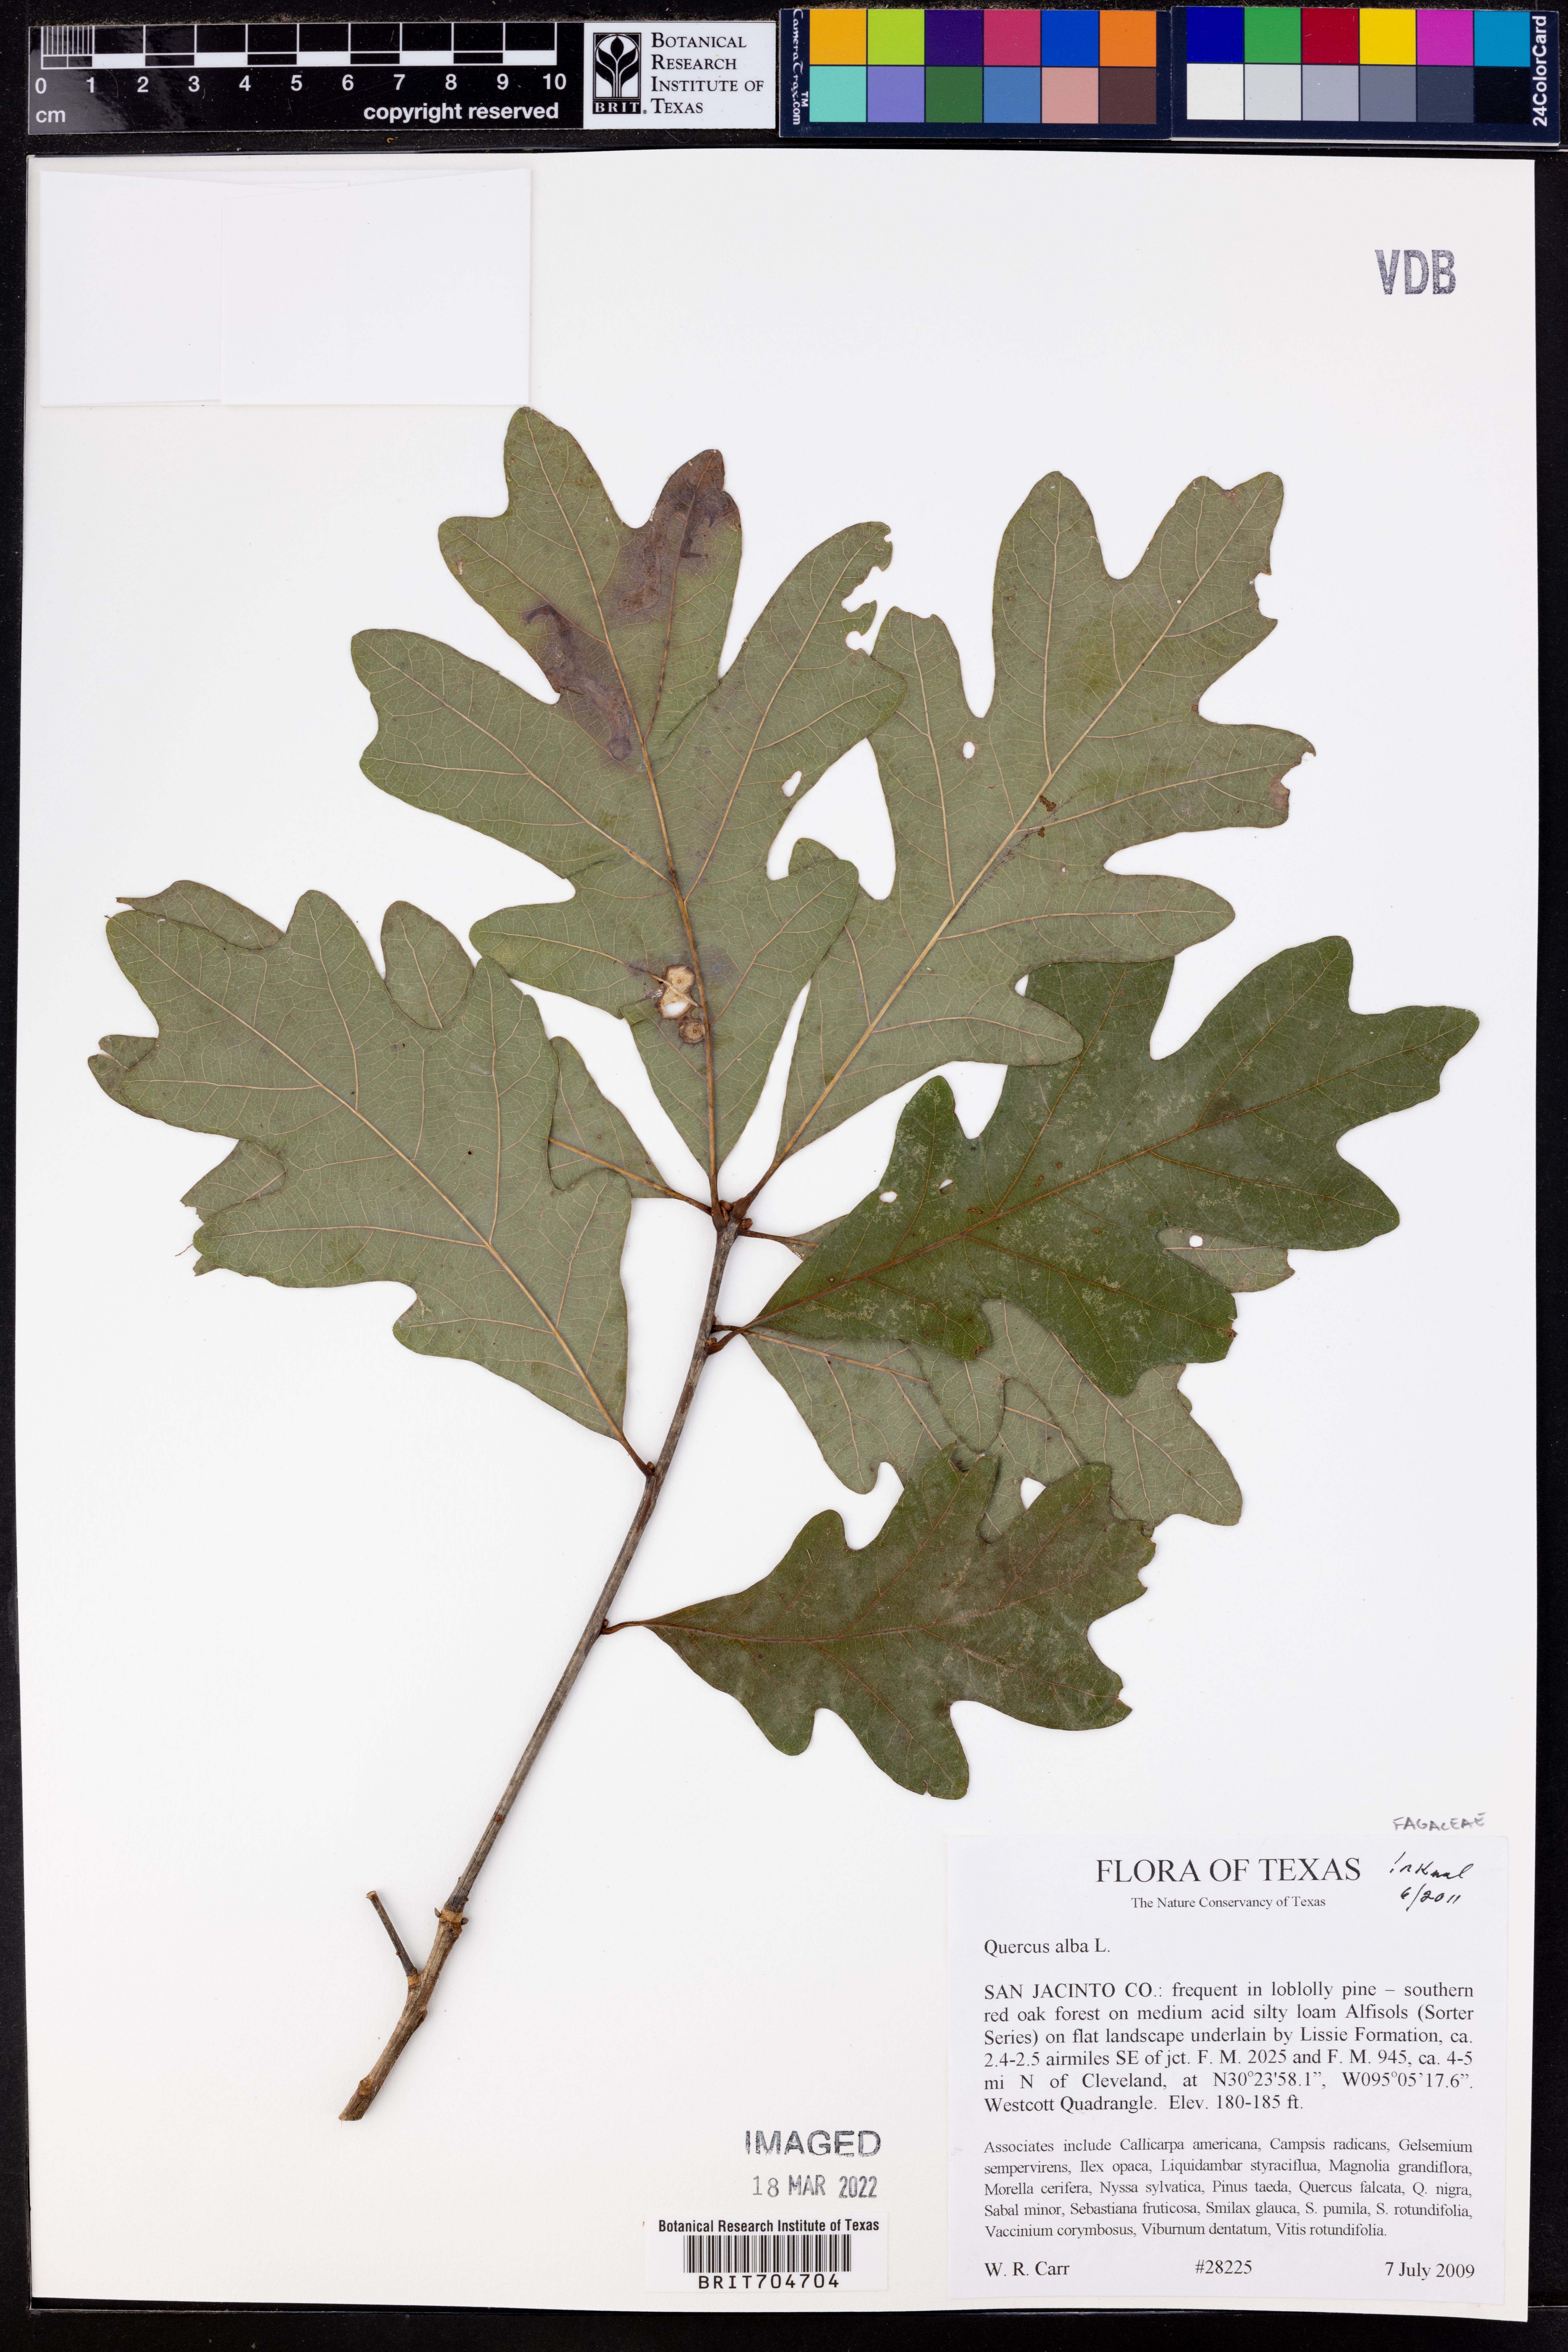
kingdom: Plantae
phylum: Tracheophyta
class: Magnoliopsida
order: Fagales
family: Fagaceae
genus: Quercus
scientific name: Quercus alba
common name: White oak
